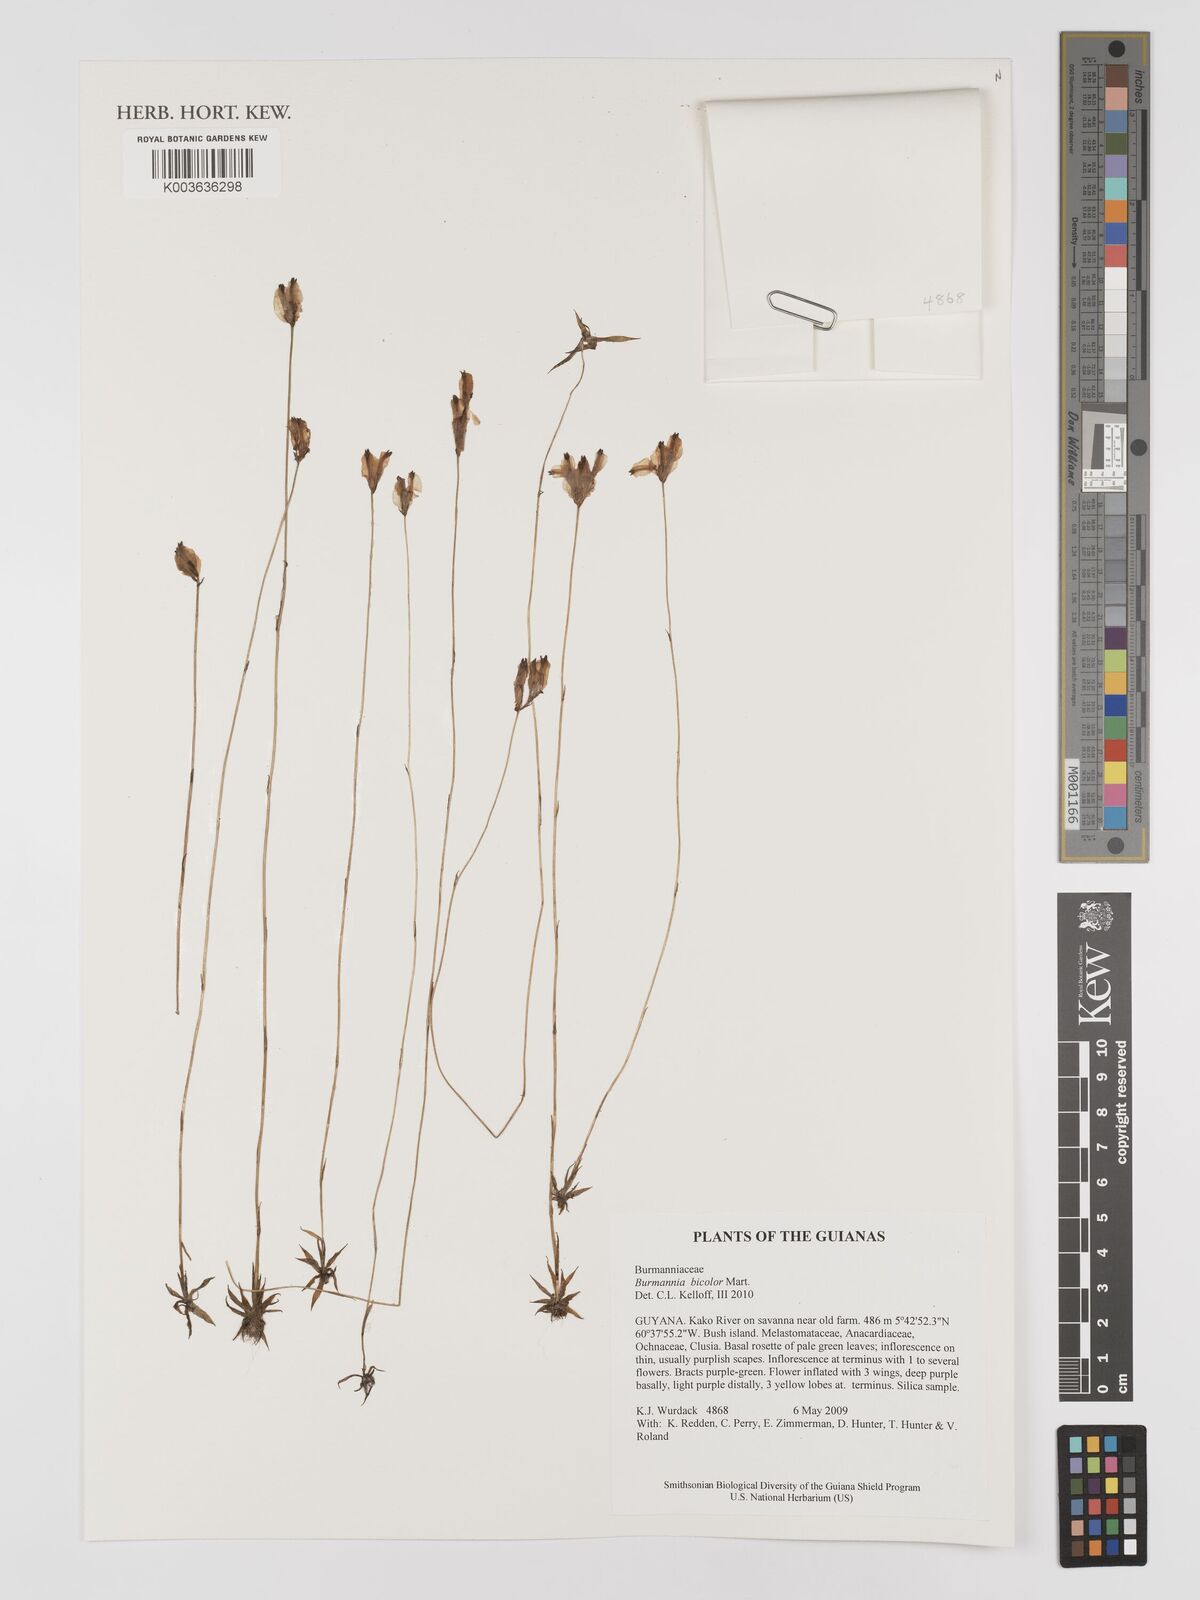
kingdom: Plantae
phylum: Tracheophyta
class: Liliopsida
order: Dioscoreales
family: Burmanniaceae
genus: Burmannia
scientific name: Burmannia bicolor
